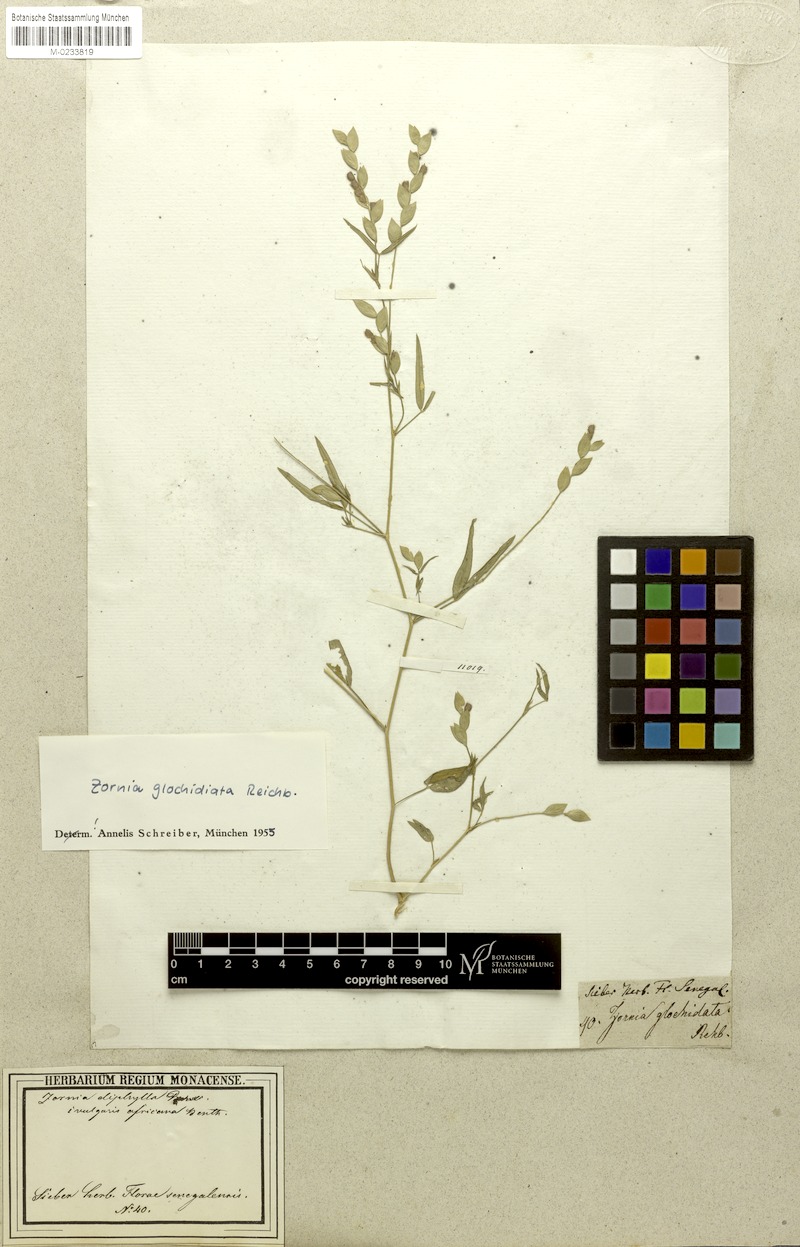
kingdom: Plantae
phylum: Tracheophyta
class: Magnoliopsida
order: Fabales
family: Fabaceae
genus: Zornia
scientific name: Zornia glochidiata
